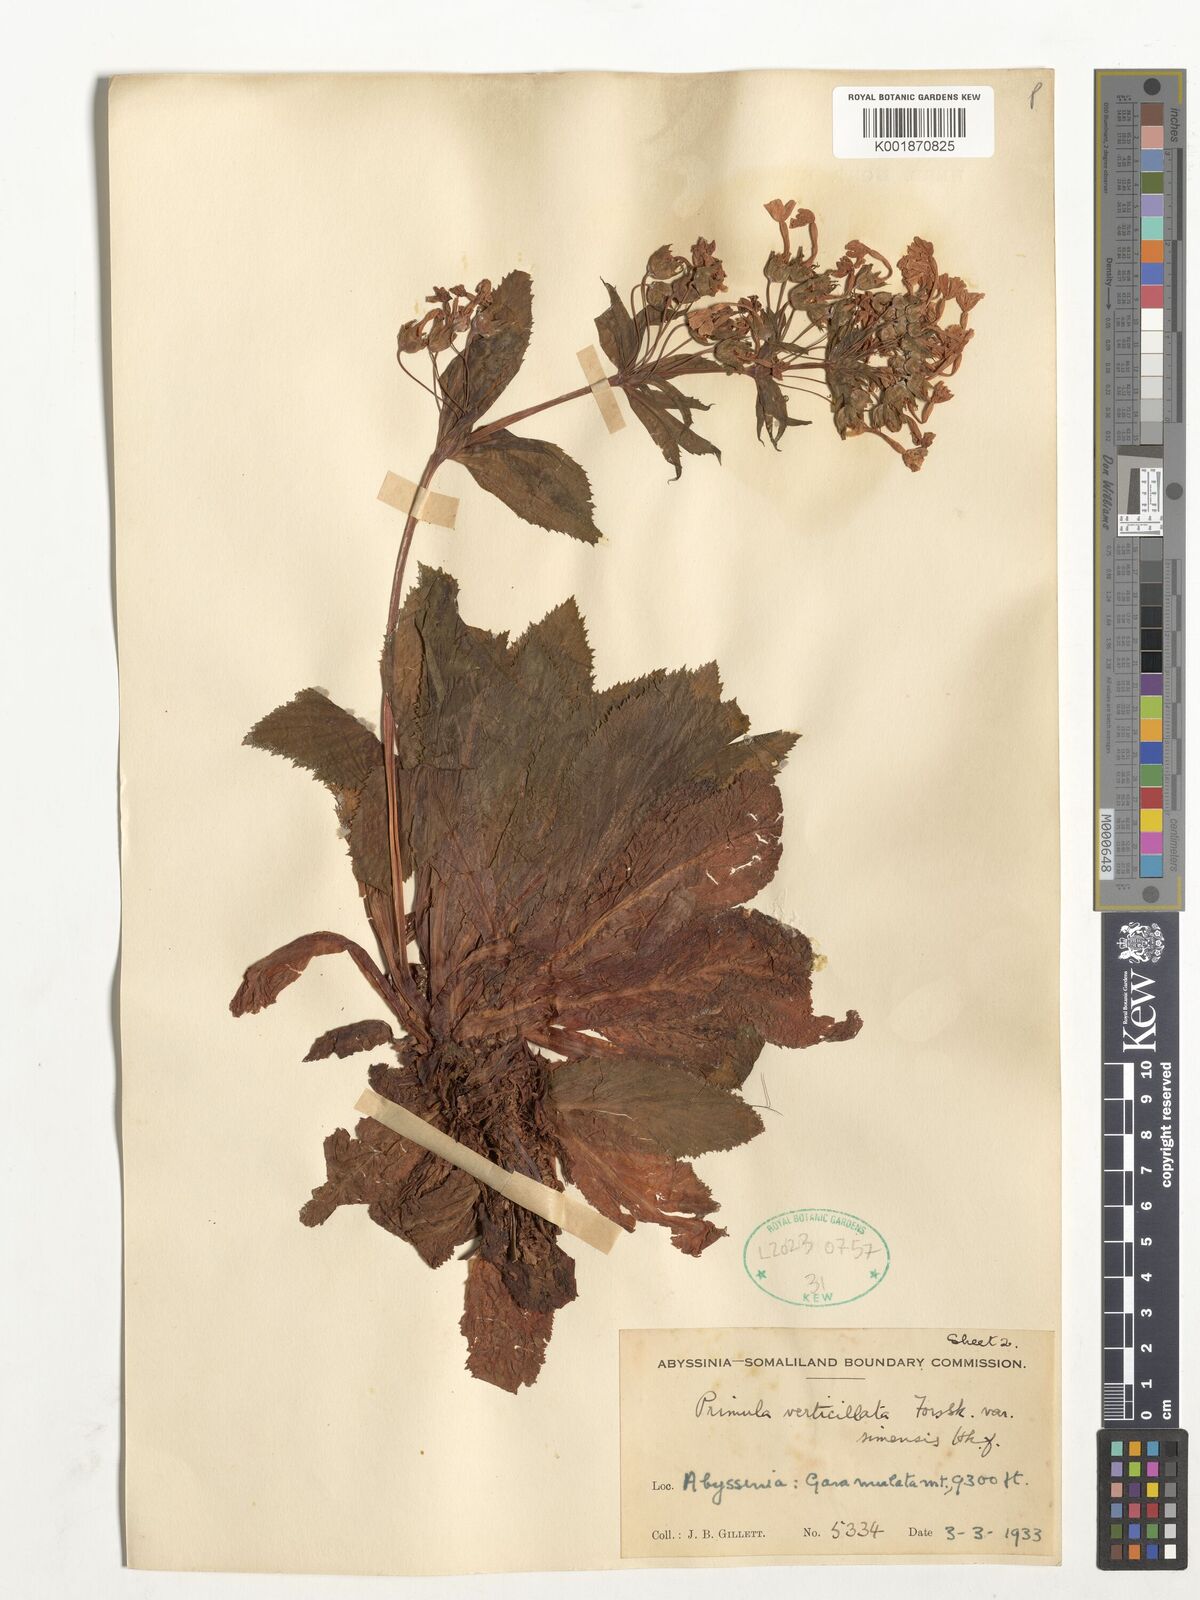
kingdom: Plantae
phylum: Tracheophyta
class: Magnoliopsida
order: Ericales
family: Primulaceae
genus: Evotrochis
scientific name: Evotrochis simensis
